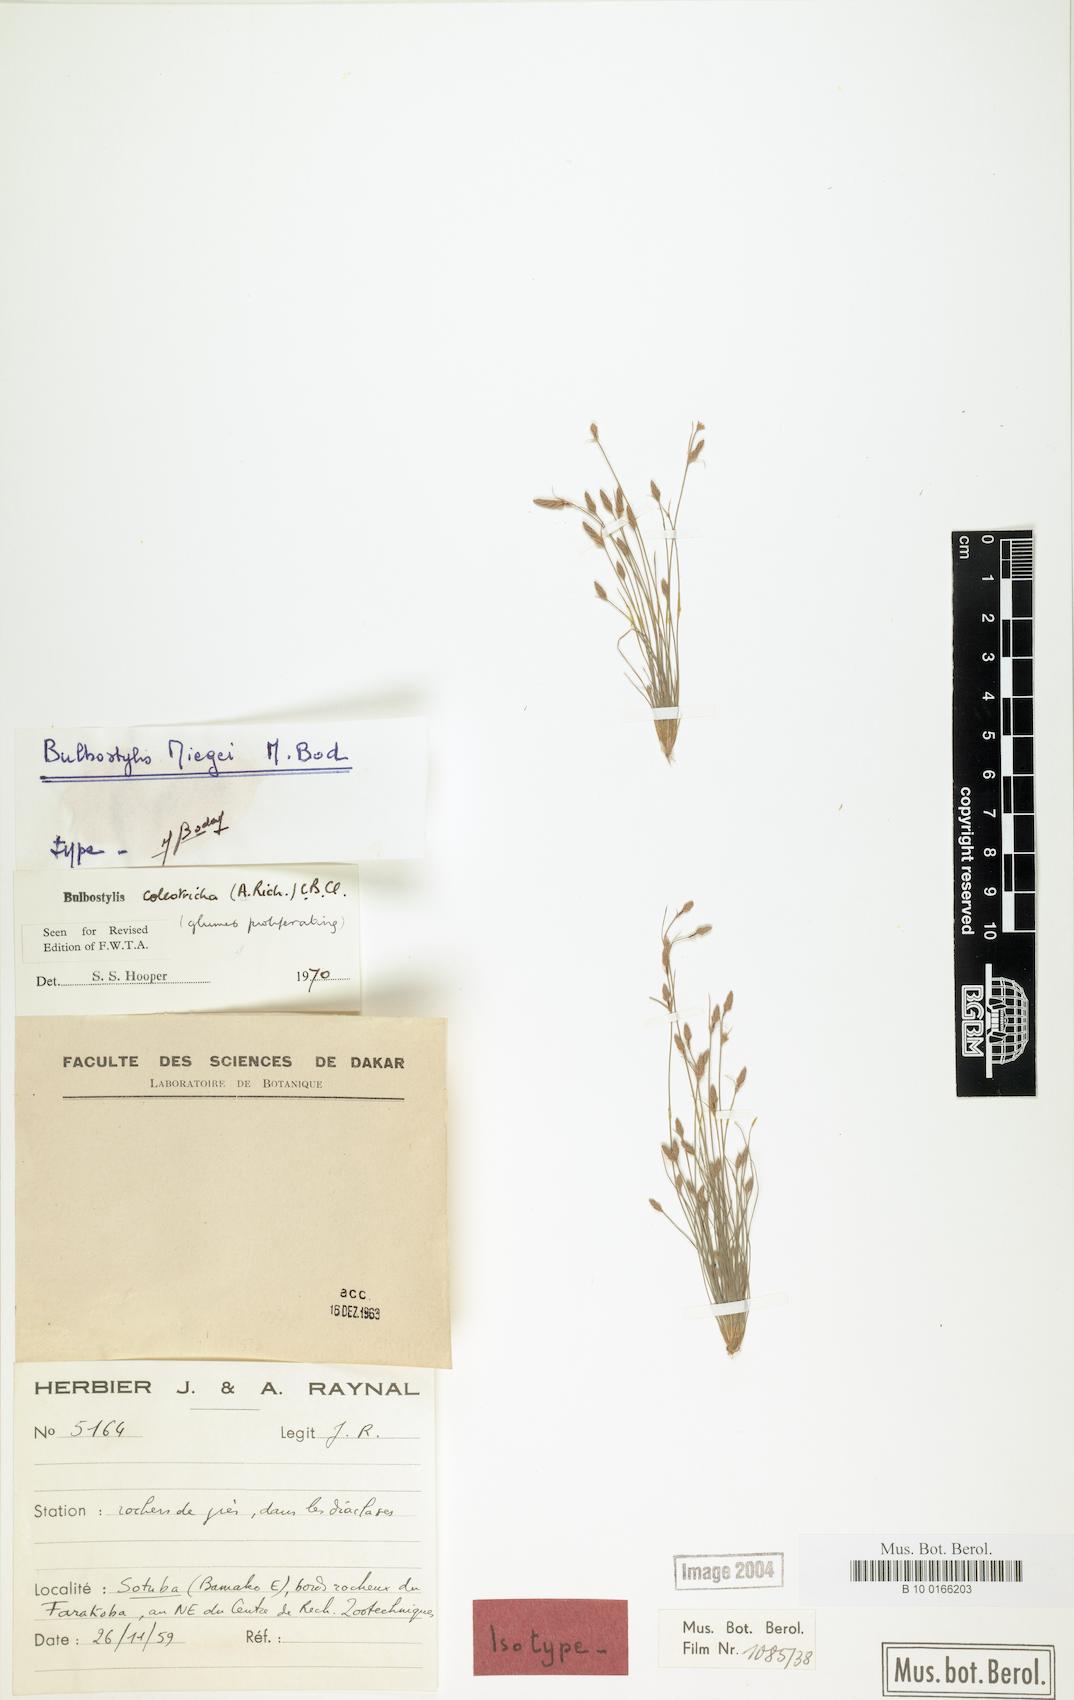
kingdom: Plantae
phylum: Tracheophyta
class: Liliopsida
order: Poales
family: Cyperaceae
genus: Bulbostylis
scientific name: Bulbostylis coleotricha
